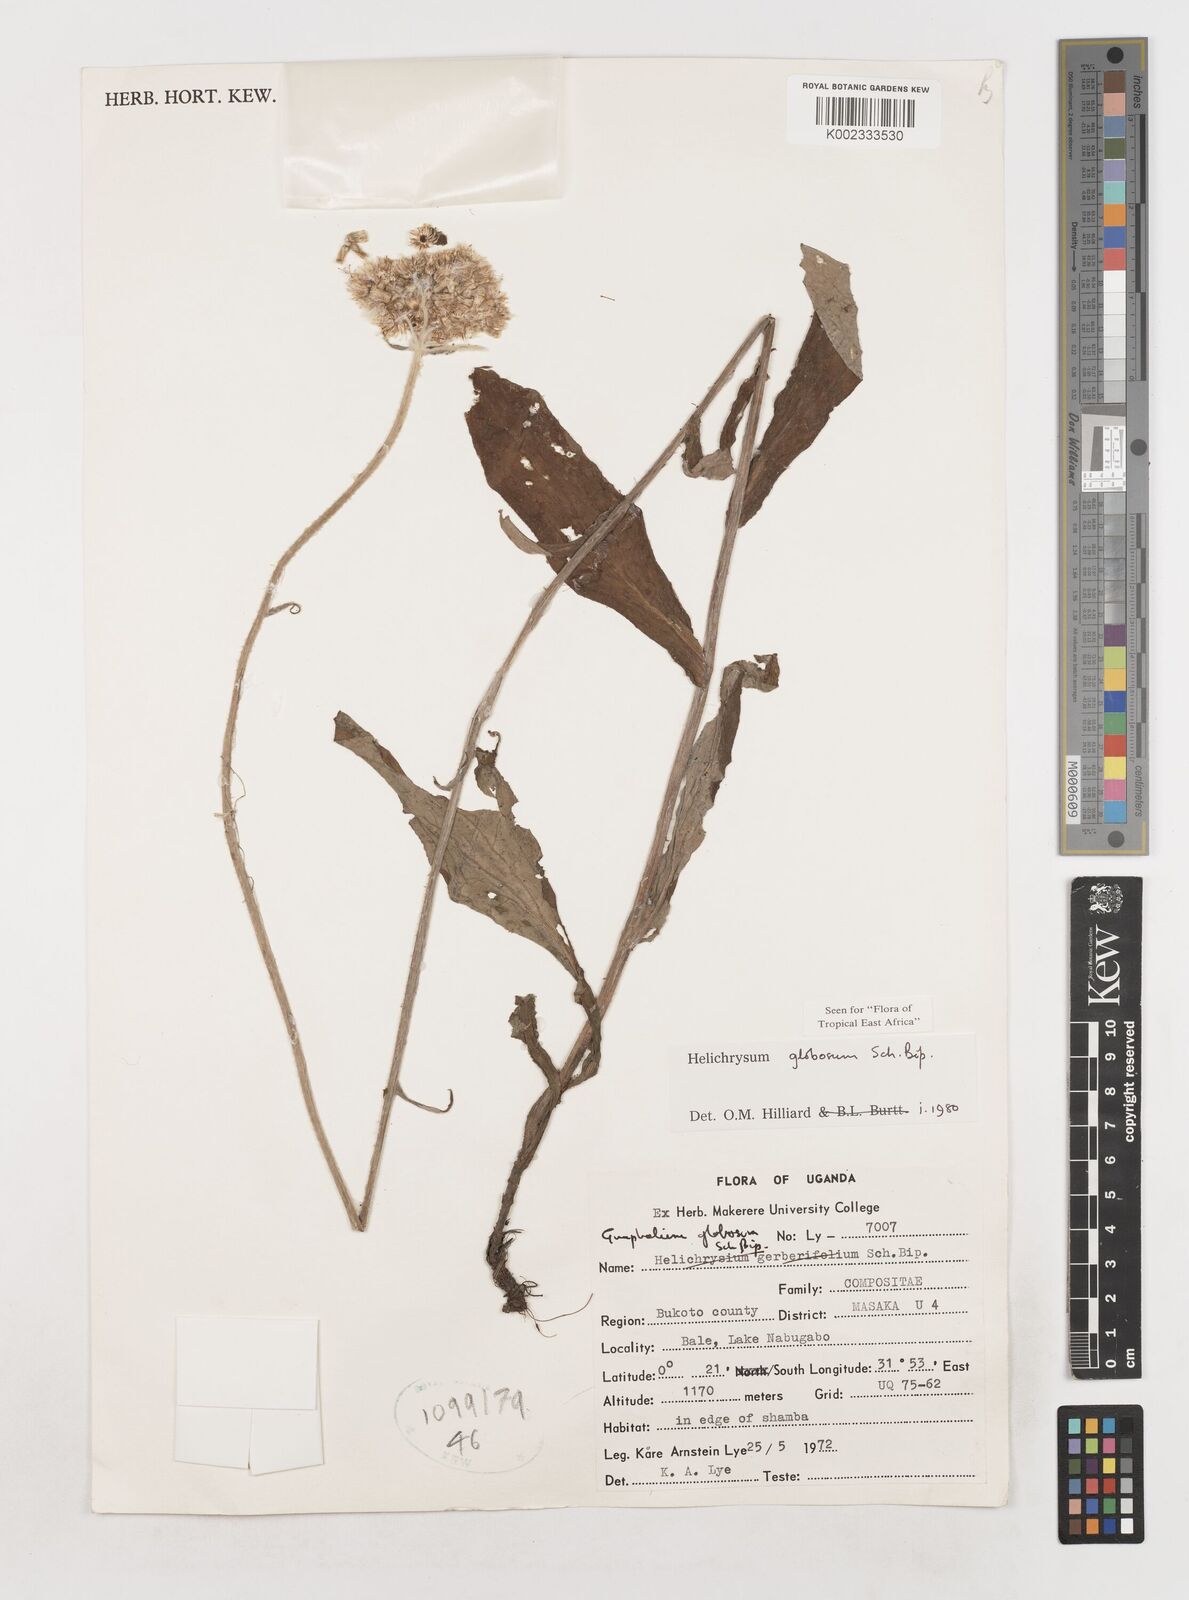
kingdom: Plantae
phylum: Tracheophyta
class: Magnoliopsida
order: Asterales
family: Asteraceae
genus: Helichrysum
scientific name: Helichrysum globosum
